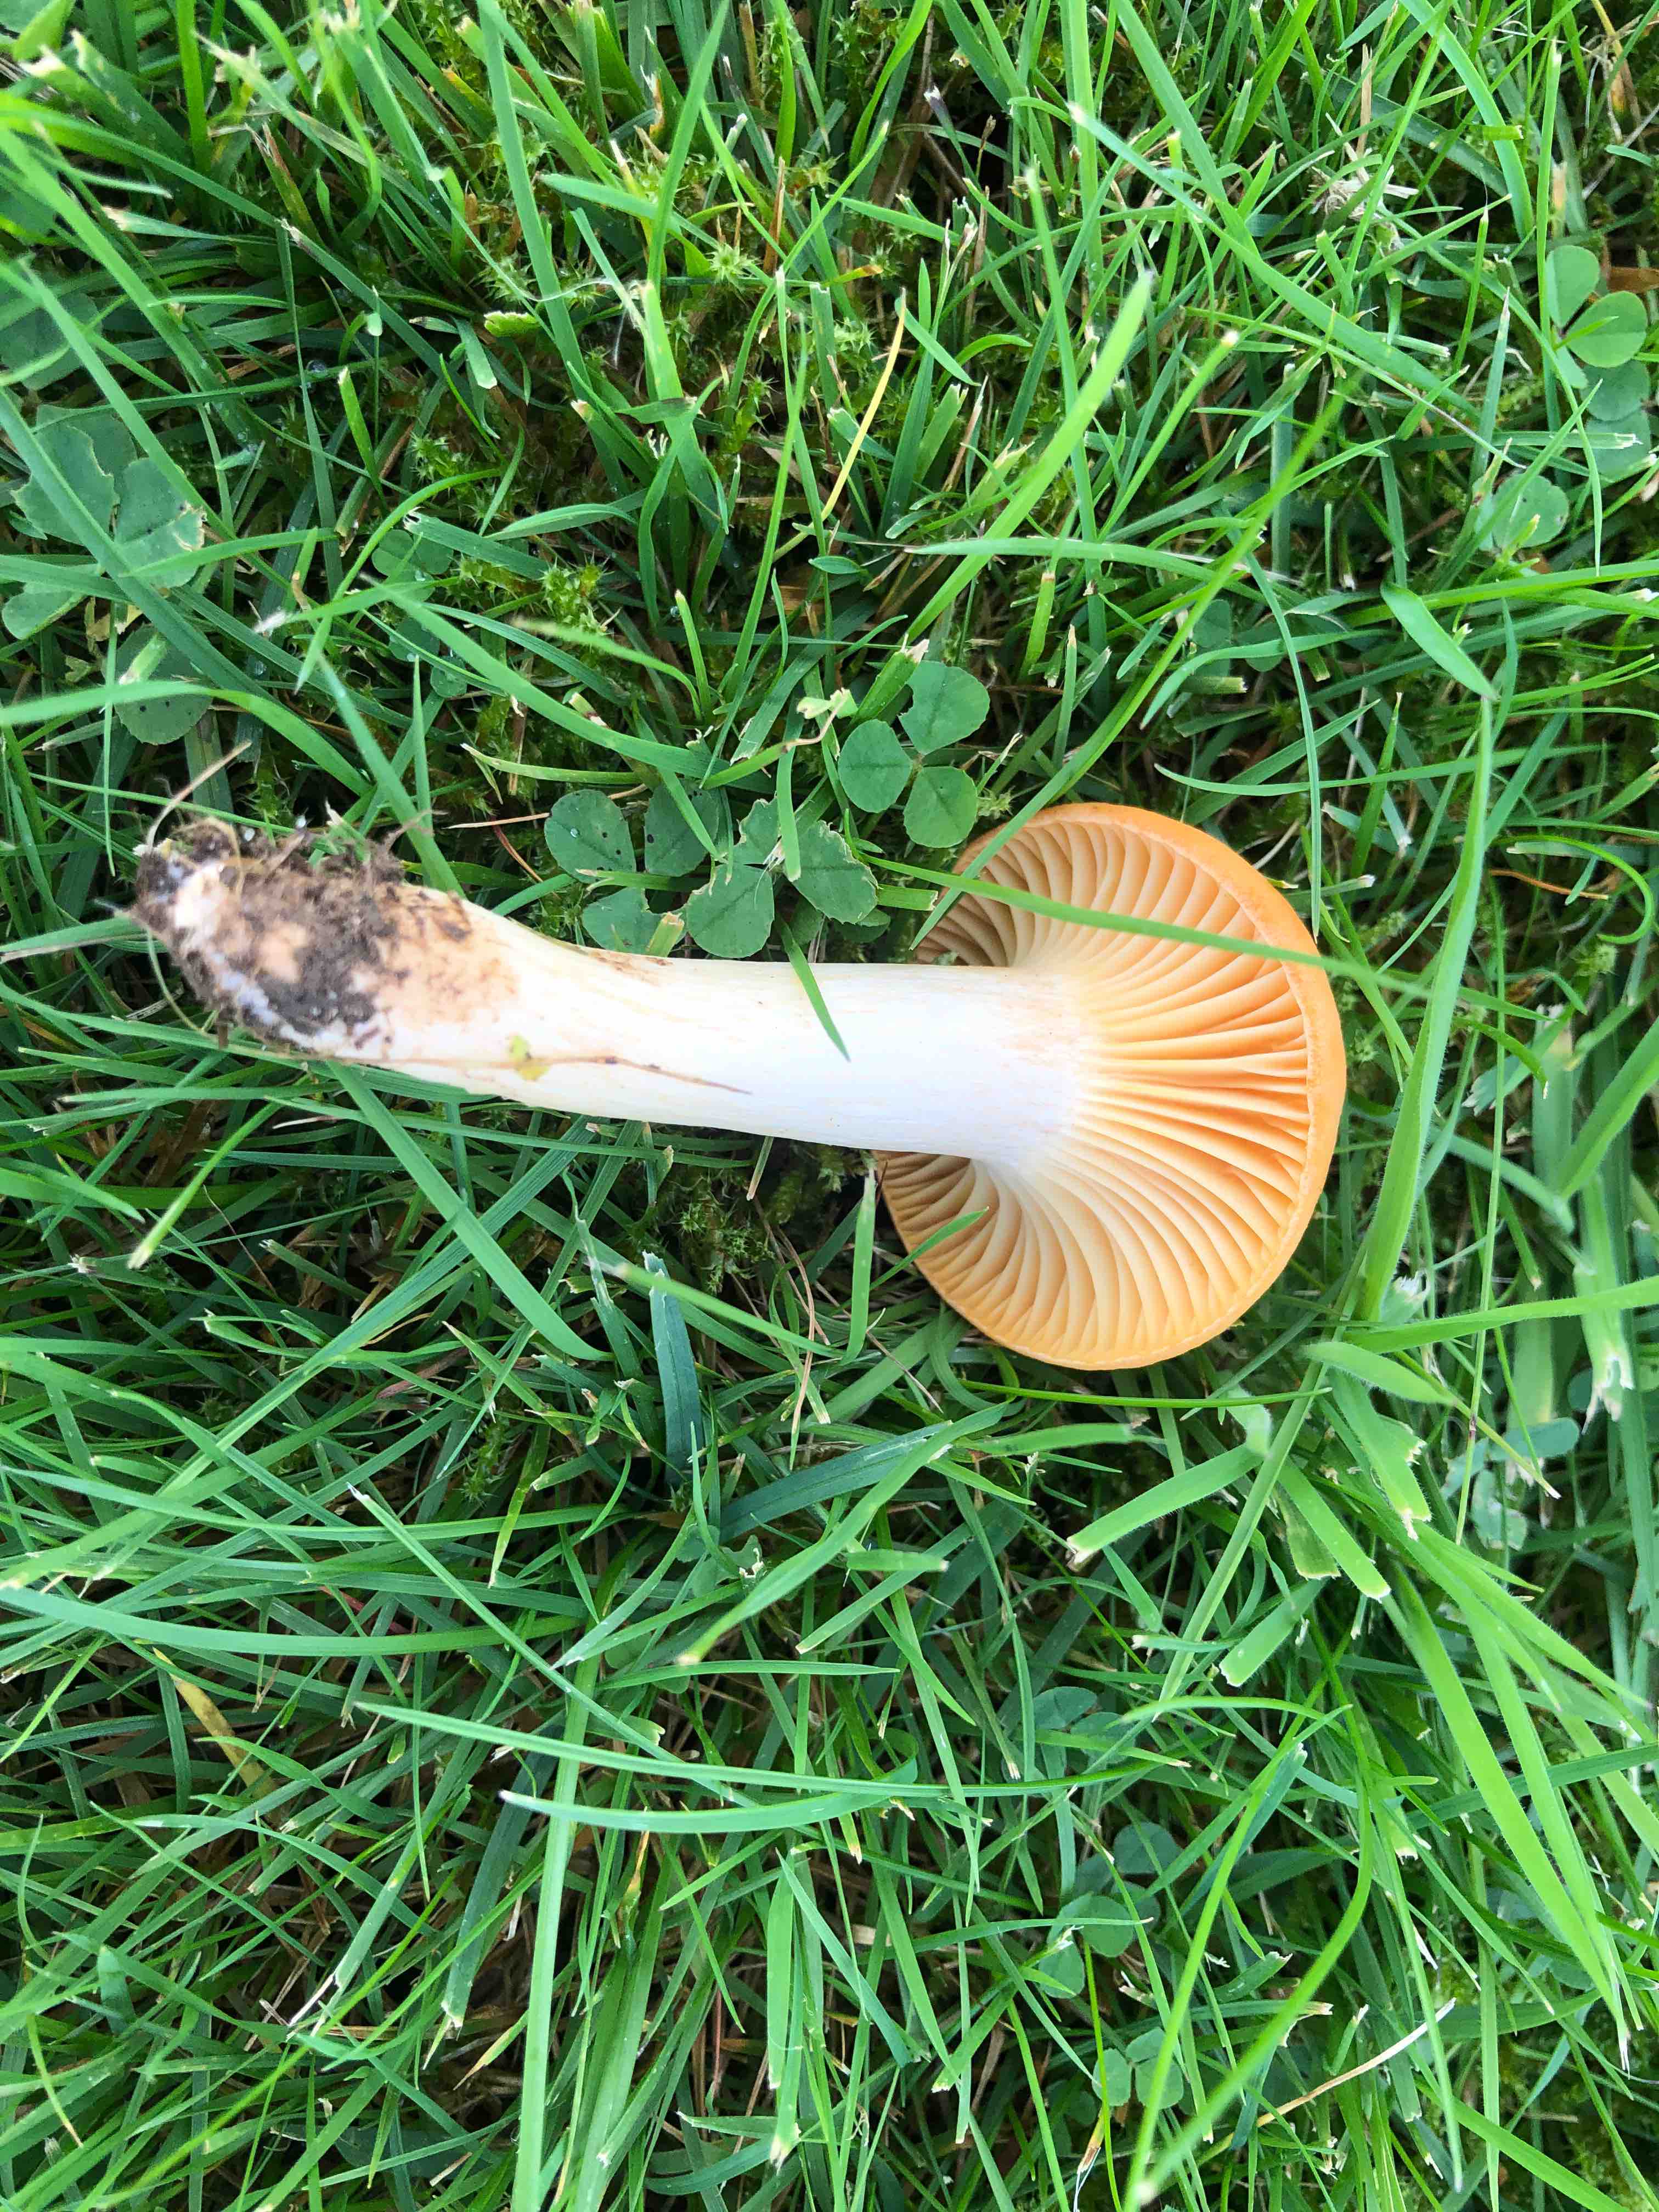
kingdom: Fungi
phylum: Basidiomycota
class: Agaricomycetes
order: Agaricales
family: Hygrophoraceae
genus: Cuphophyllus
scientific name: Cuphophyllus pratensis
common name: eng-vokshat
